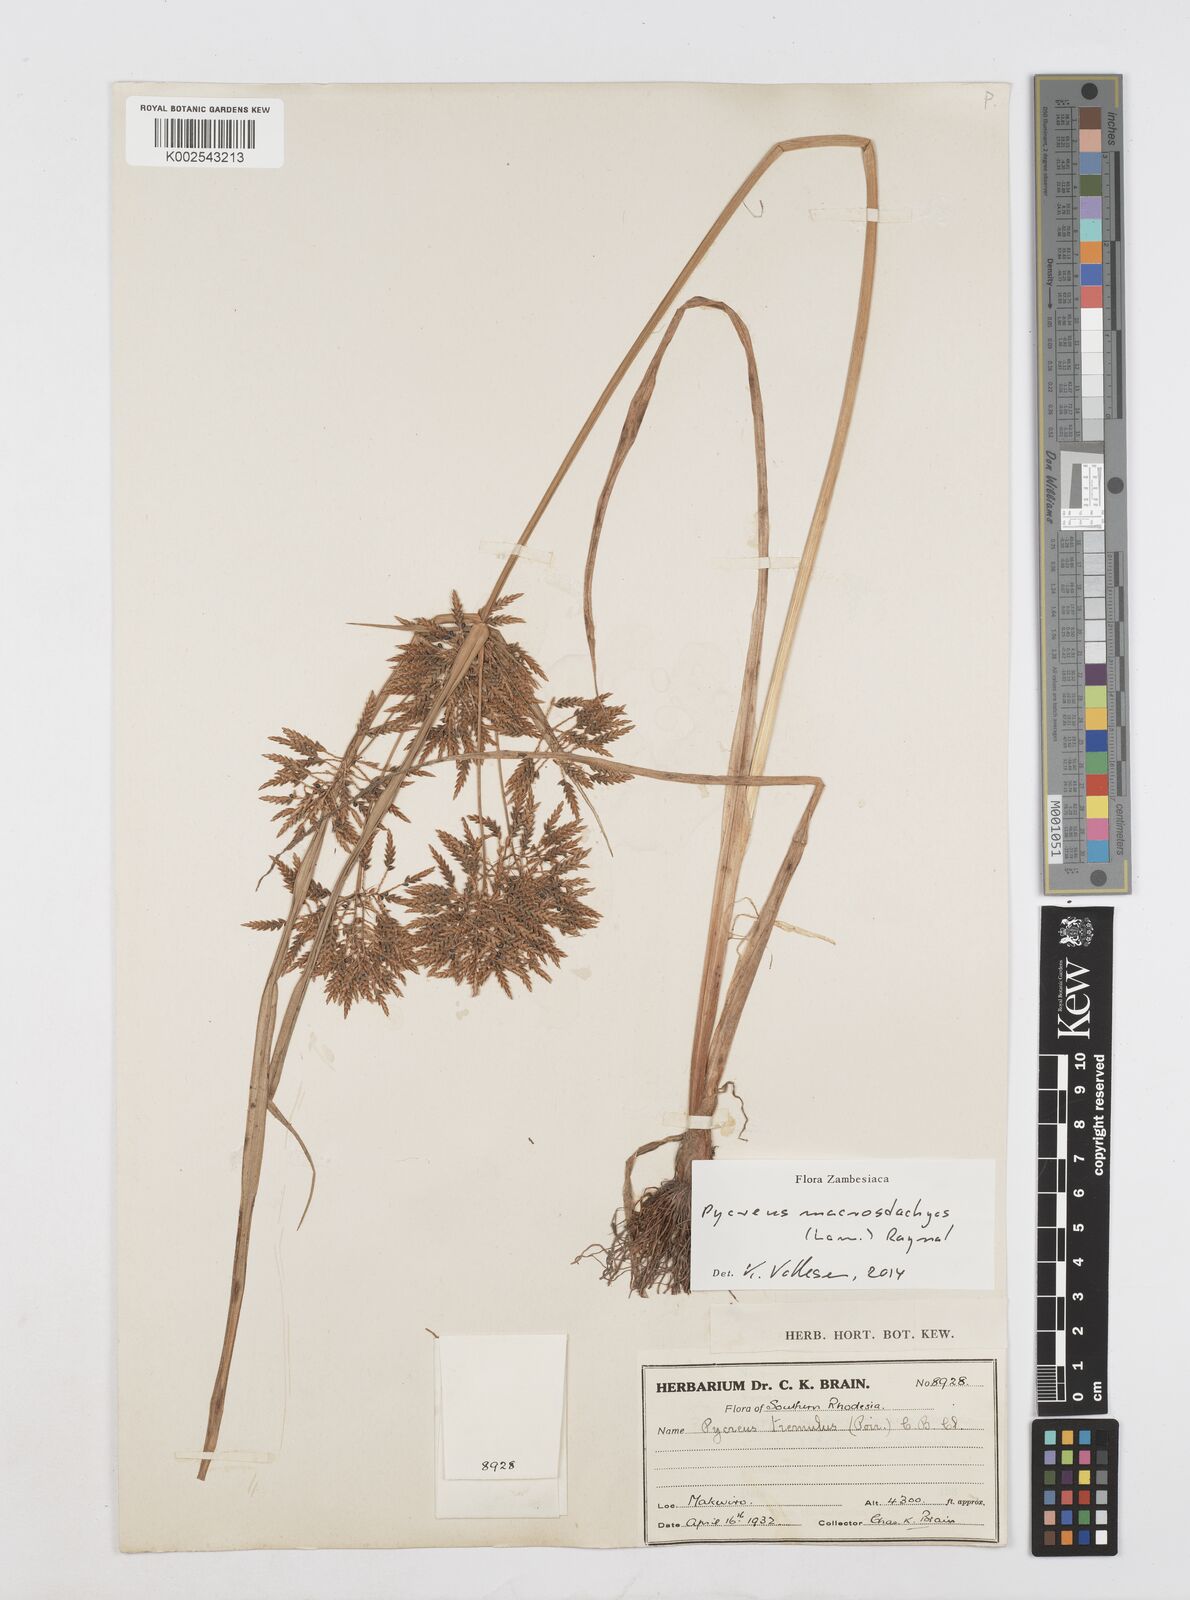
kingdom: Plantae
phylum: Tracheophyta
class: Liliopsida
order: Poales
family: Cyperaceae
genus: Cyperus
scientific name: Cyperus macrostachyos
